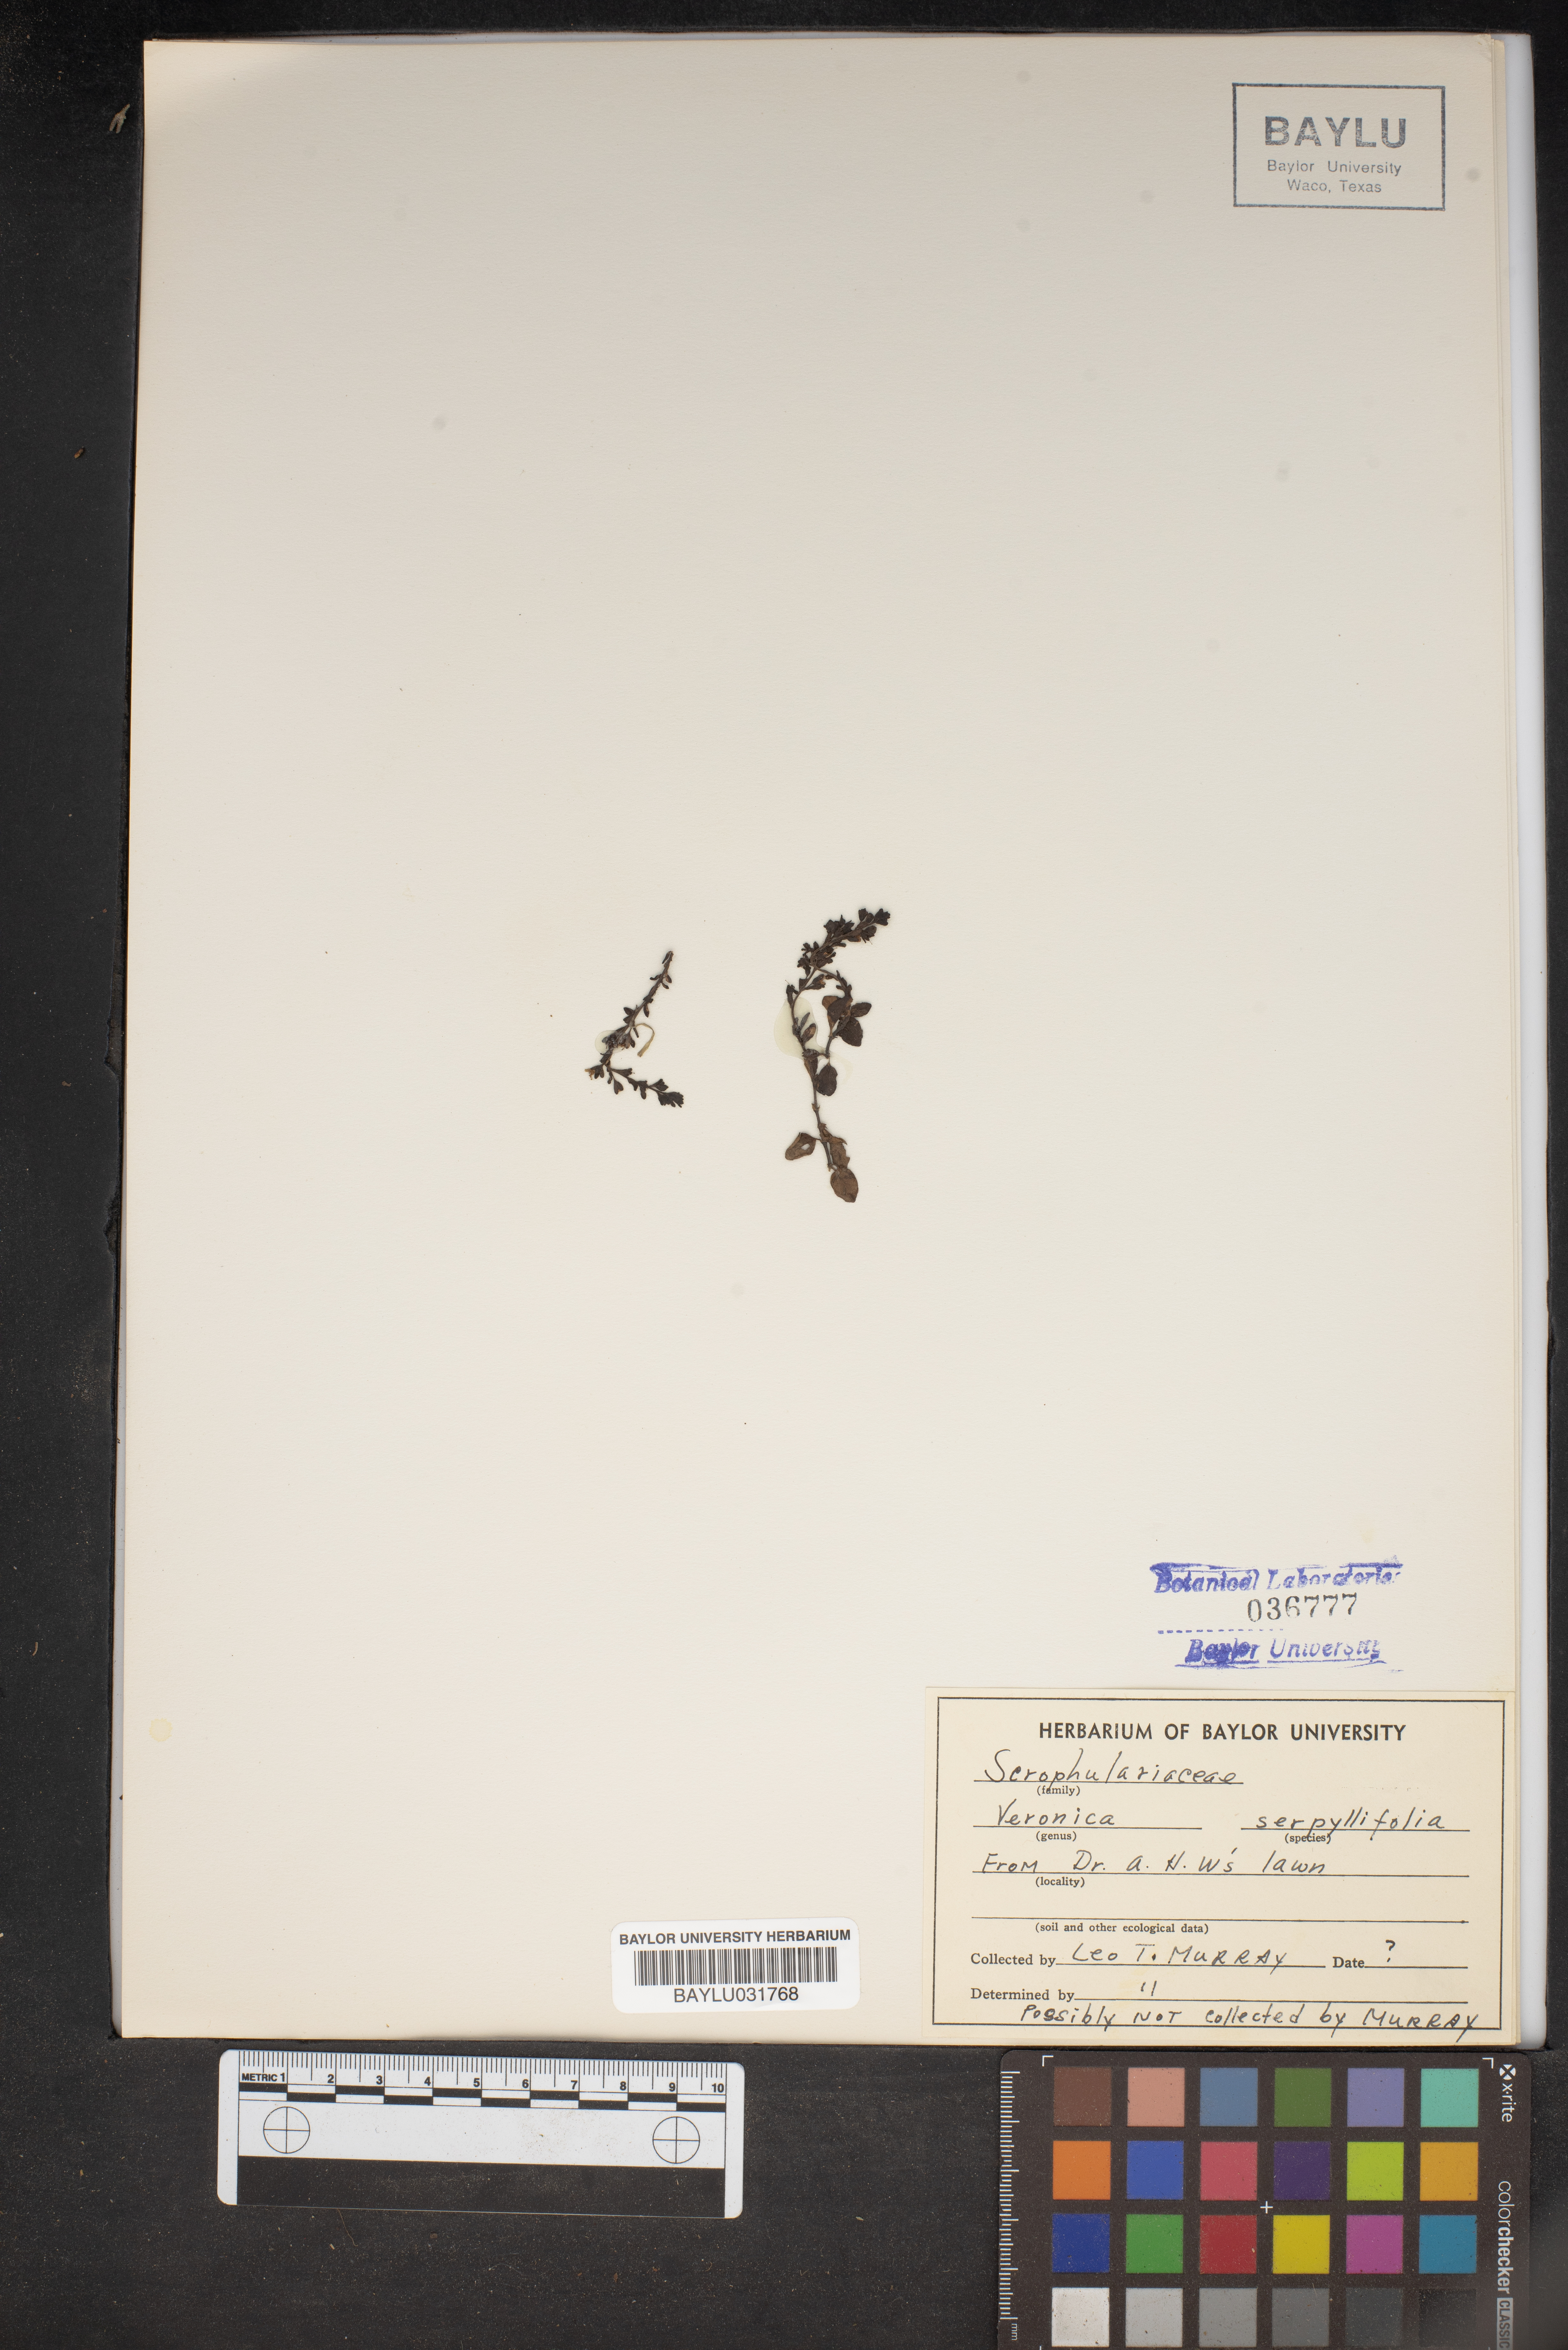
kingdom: Plantae
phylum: Tracheophyta
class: Magnoliopsida
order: Lamiales
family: Plantaginaceae
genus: Veronica
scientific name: Veronica serpyllifolia
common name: Thyme-leaved speedwell
